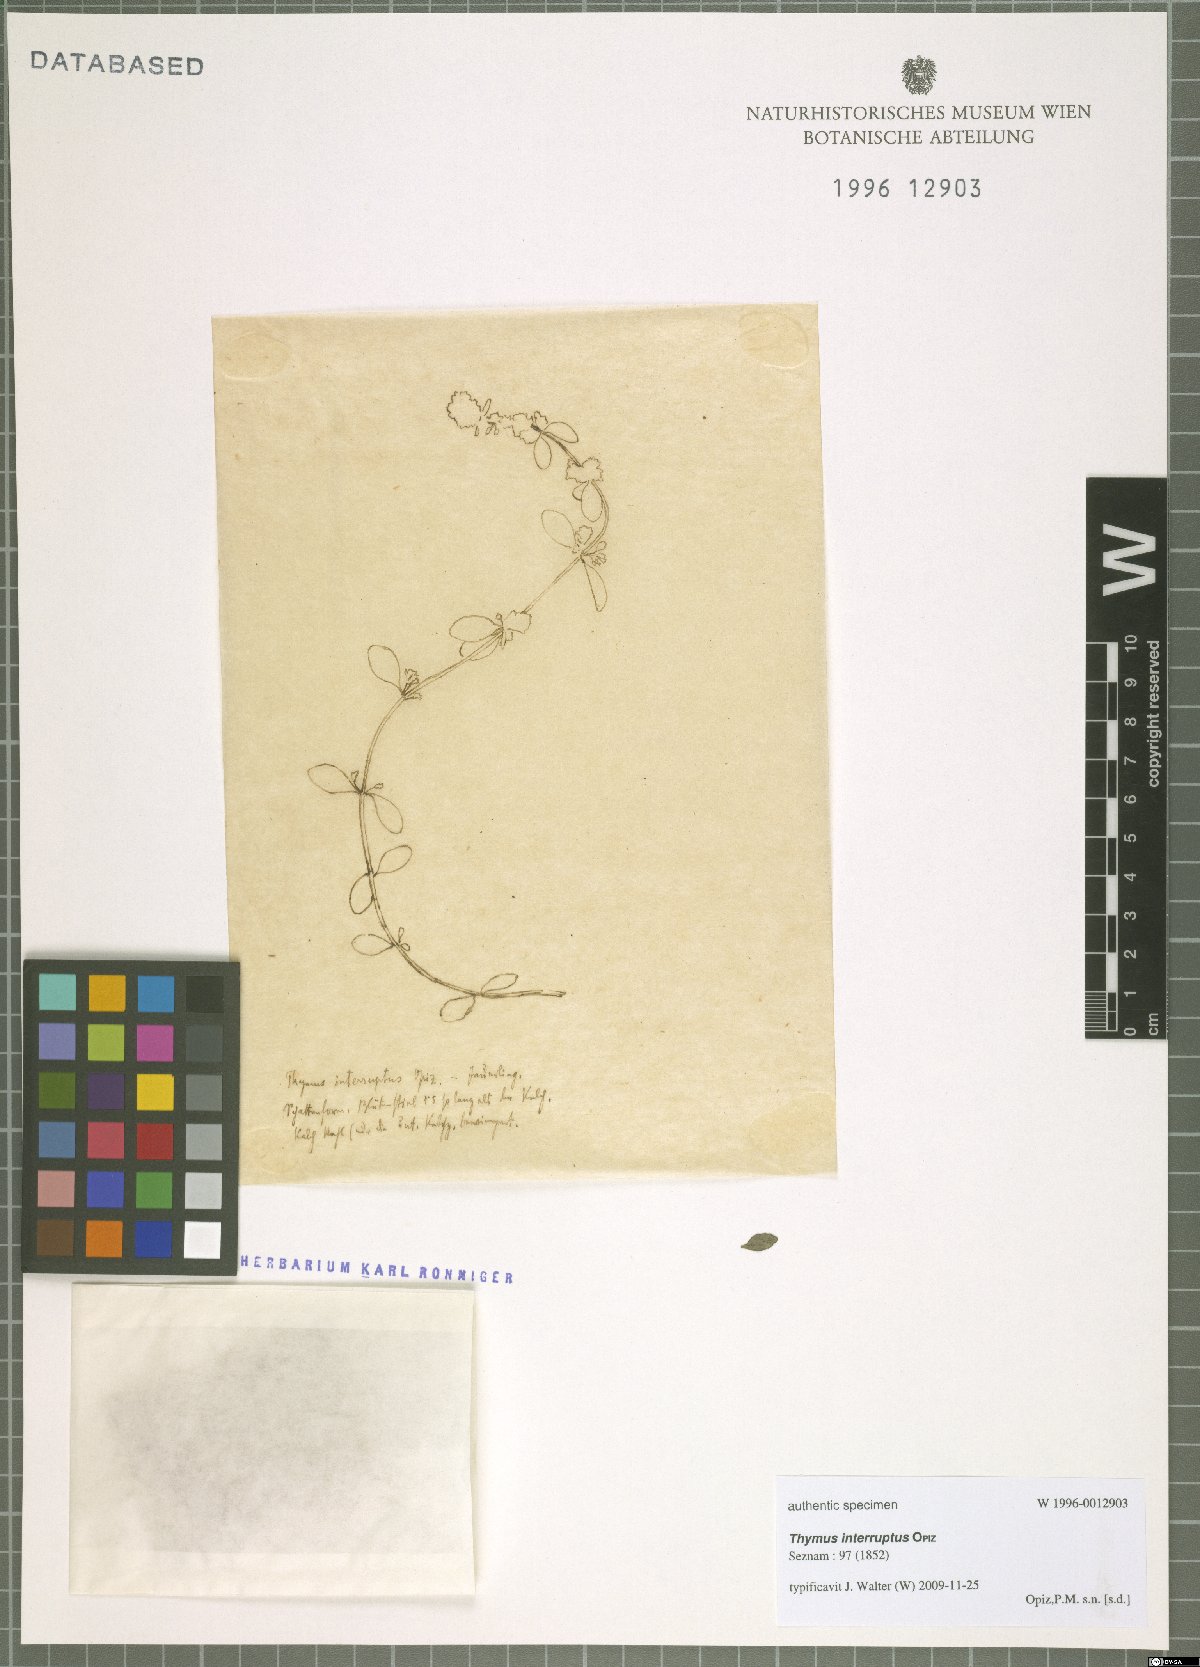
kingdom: Plantae
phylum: Tracheophyta
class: Magnoliopsida
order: Lamiales
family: Lamiaceae
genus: Thymus
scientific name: Thymus serpyllum
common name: Breckland thyme
